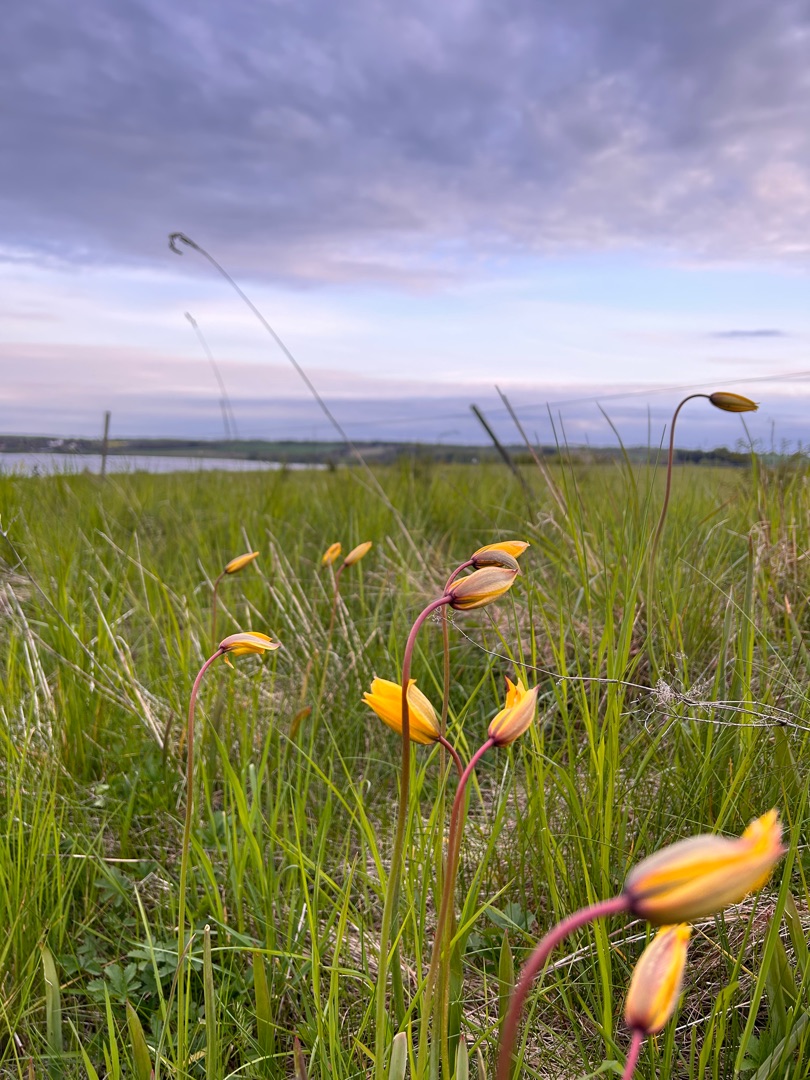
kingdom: Plantae
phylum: Tracheophyta
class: Liliopsida
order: Liliales
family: Liliaceae
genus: Tulipa
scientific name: Tulipa sylvestris
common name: Vild tulipan
